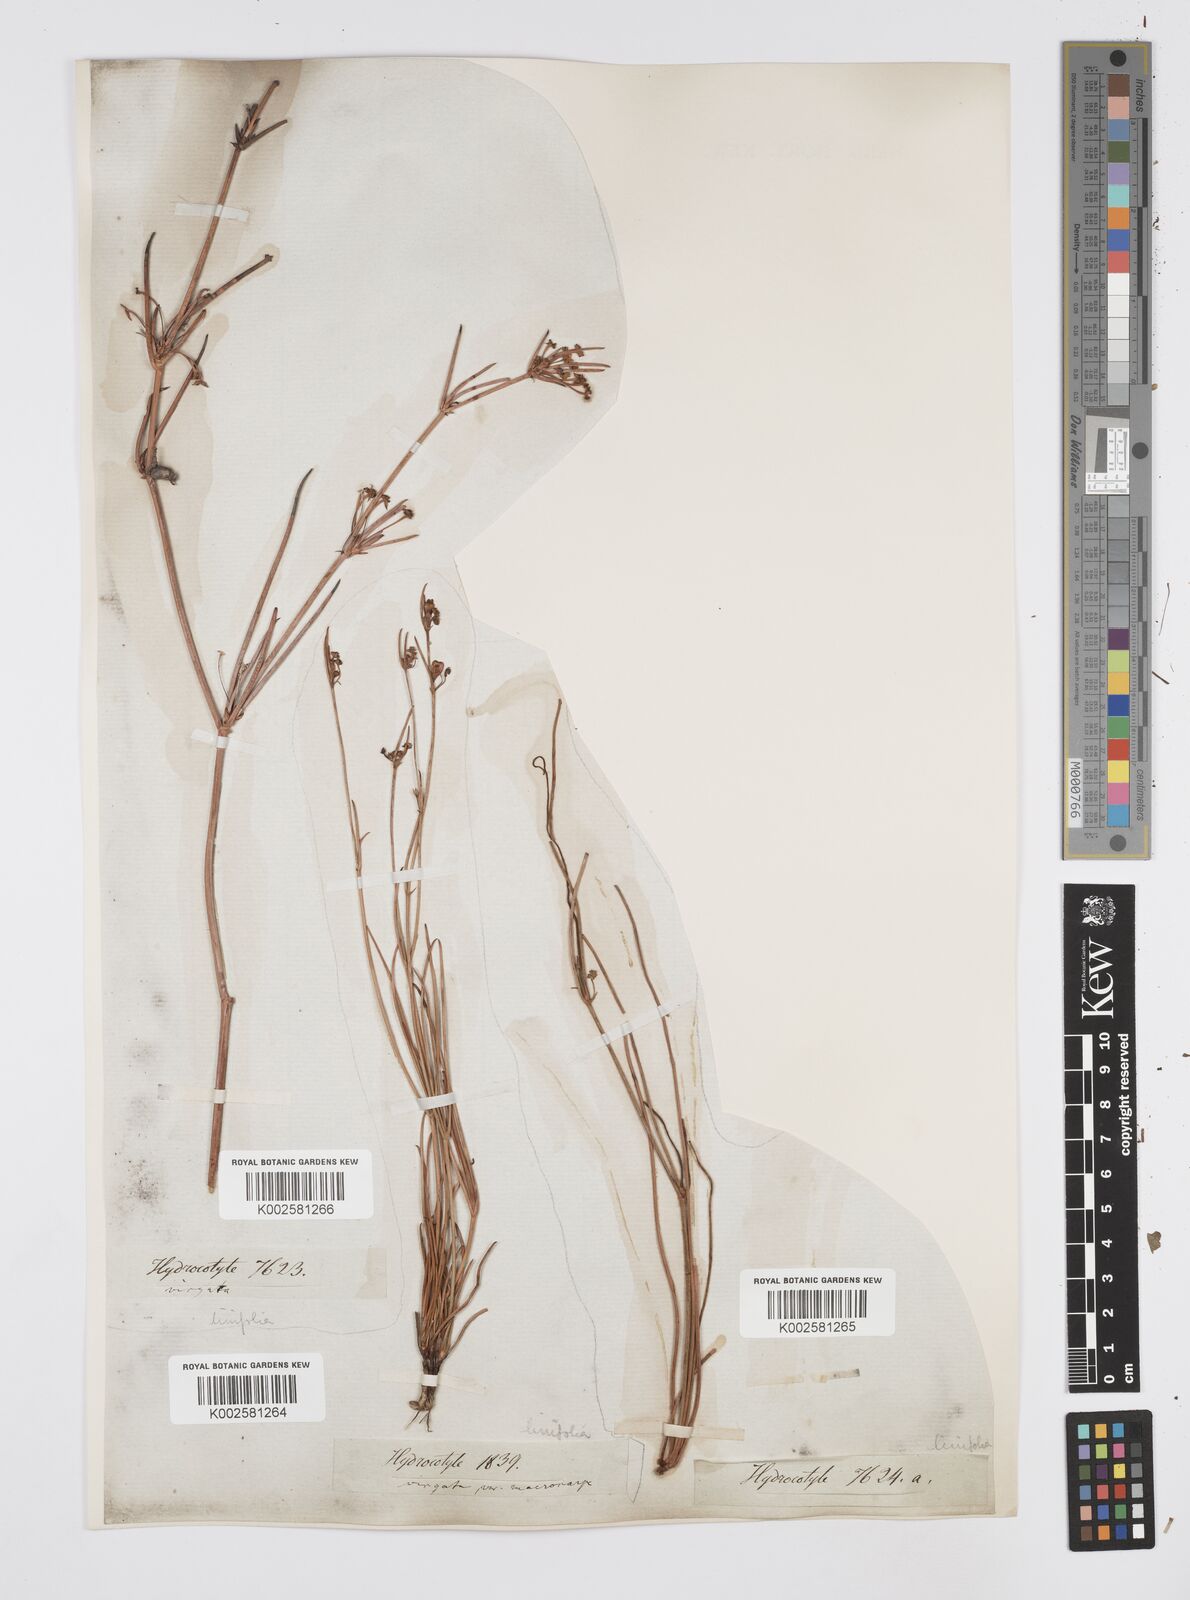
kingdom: Plantae
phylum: Tracheophyta
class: Magnoliopsida
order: Apiales
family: Apiaceae
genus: Centella
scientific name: Centella linifolia
